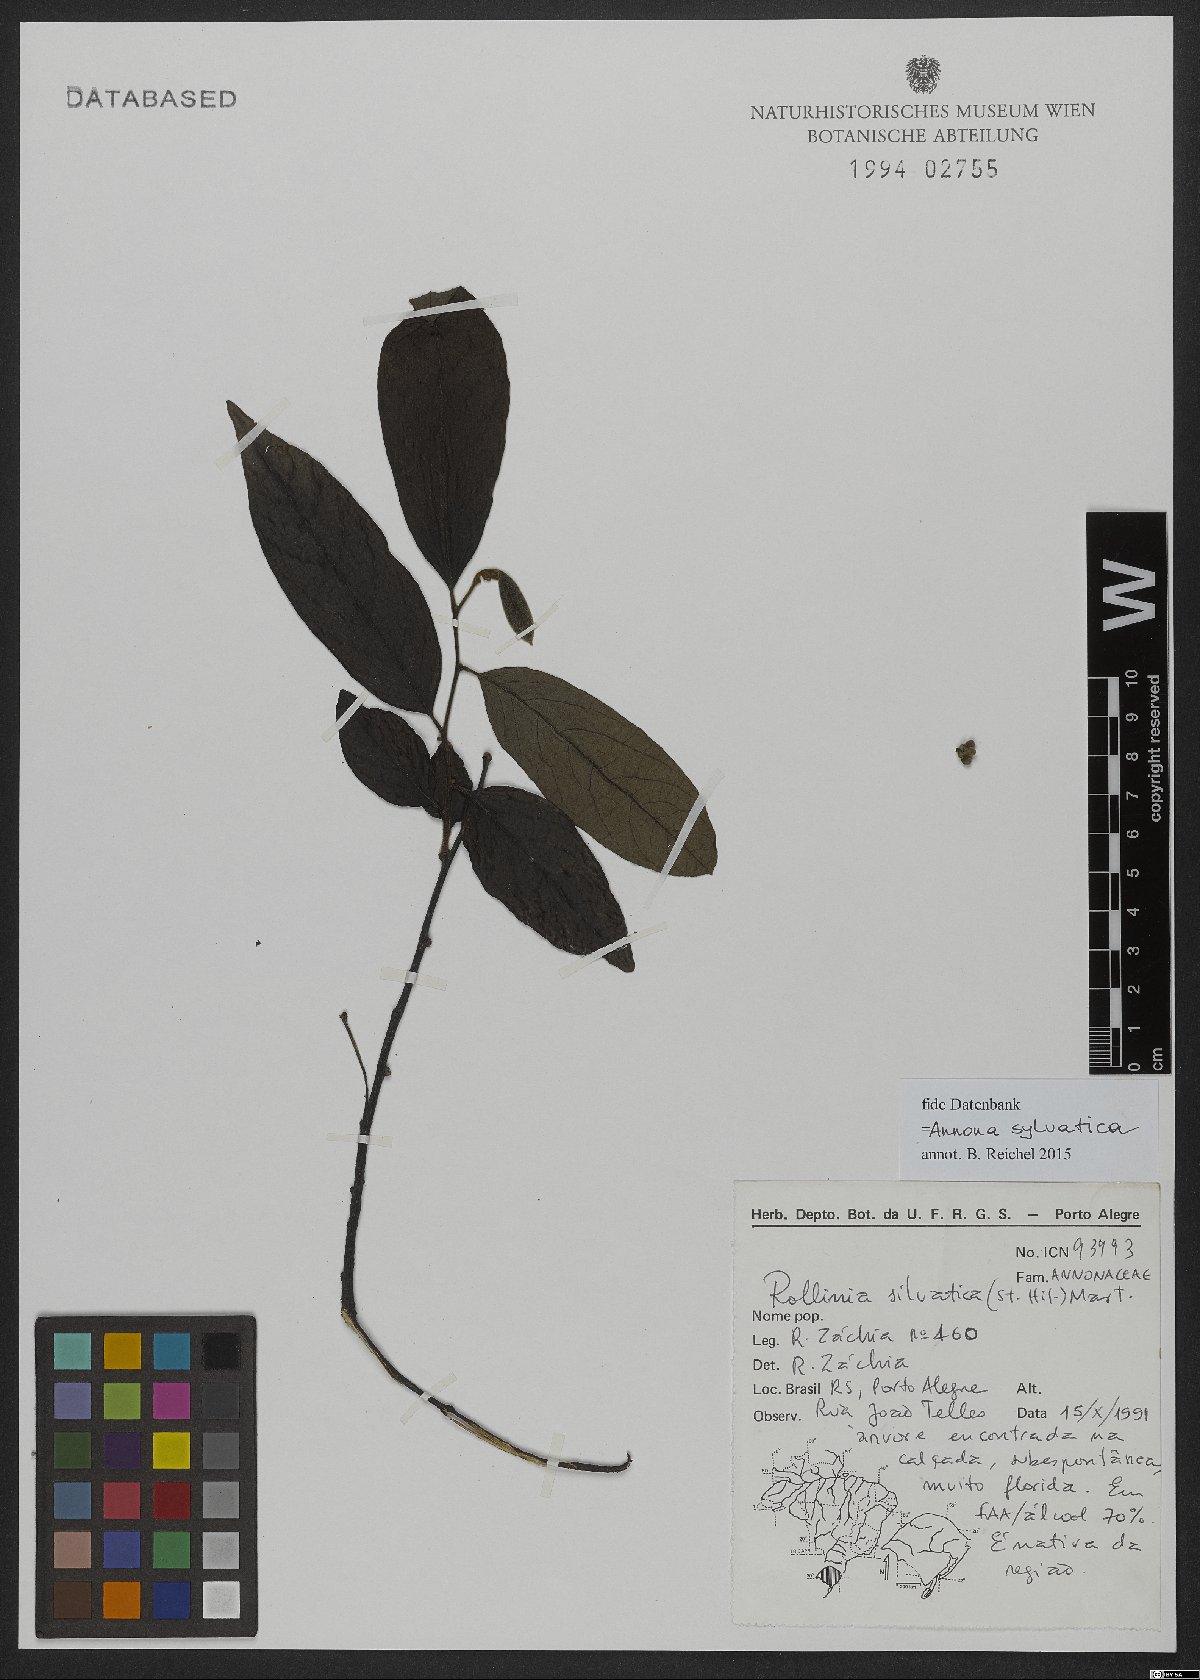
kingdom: Plantae
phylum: Tracheophyta
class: Magnoliopsida
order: Magnoliales
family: Annonaceae
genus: Annona
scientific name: Annona sylvatica
